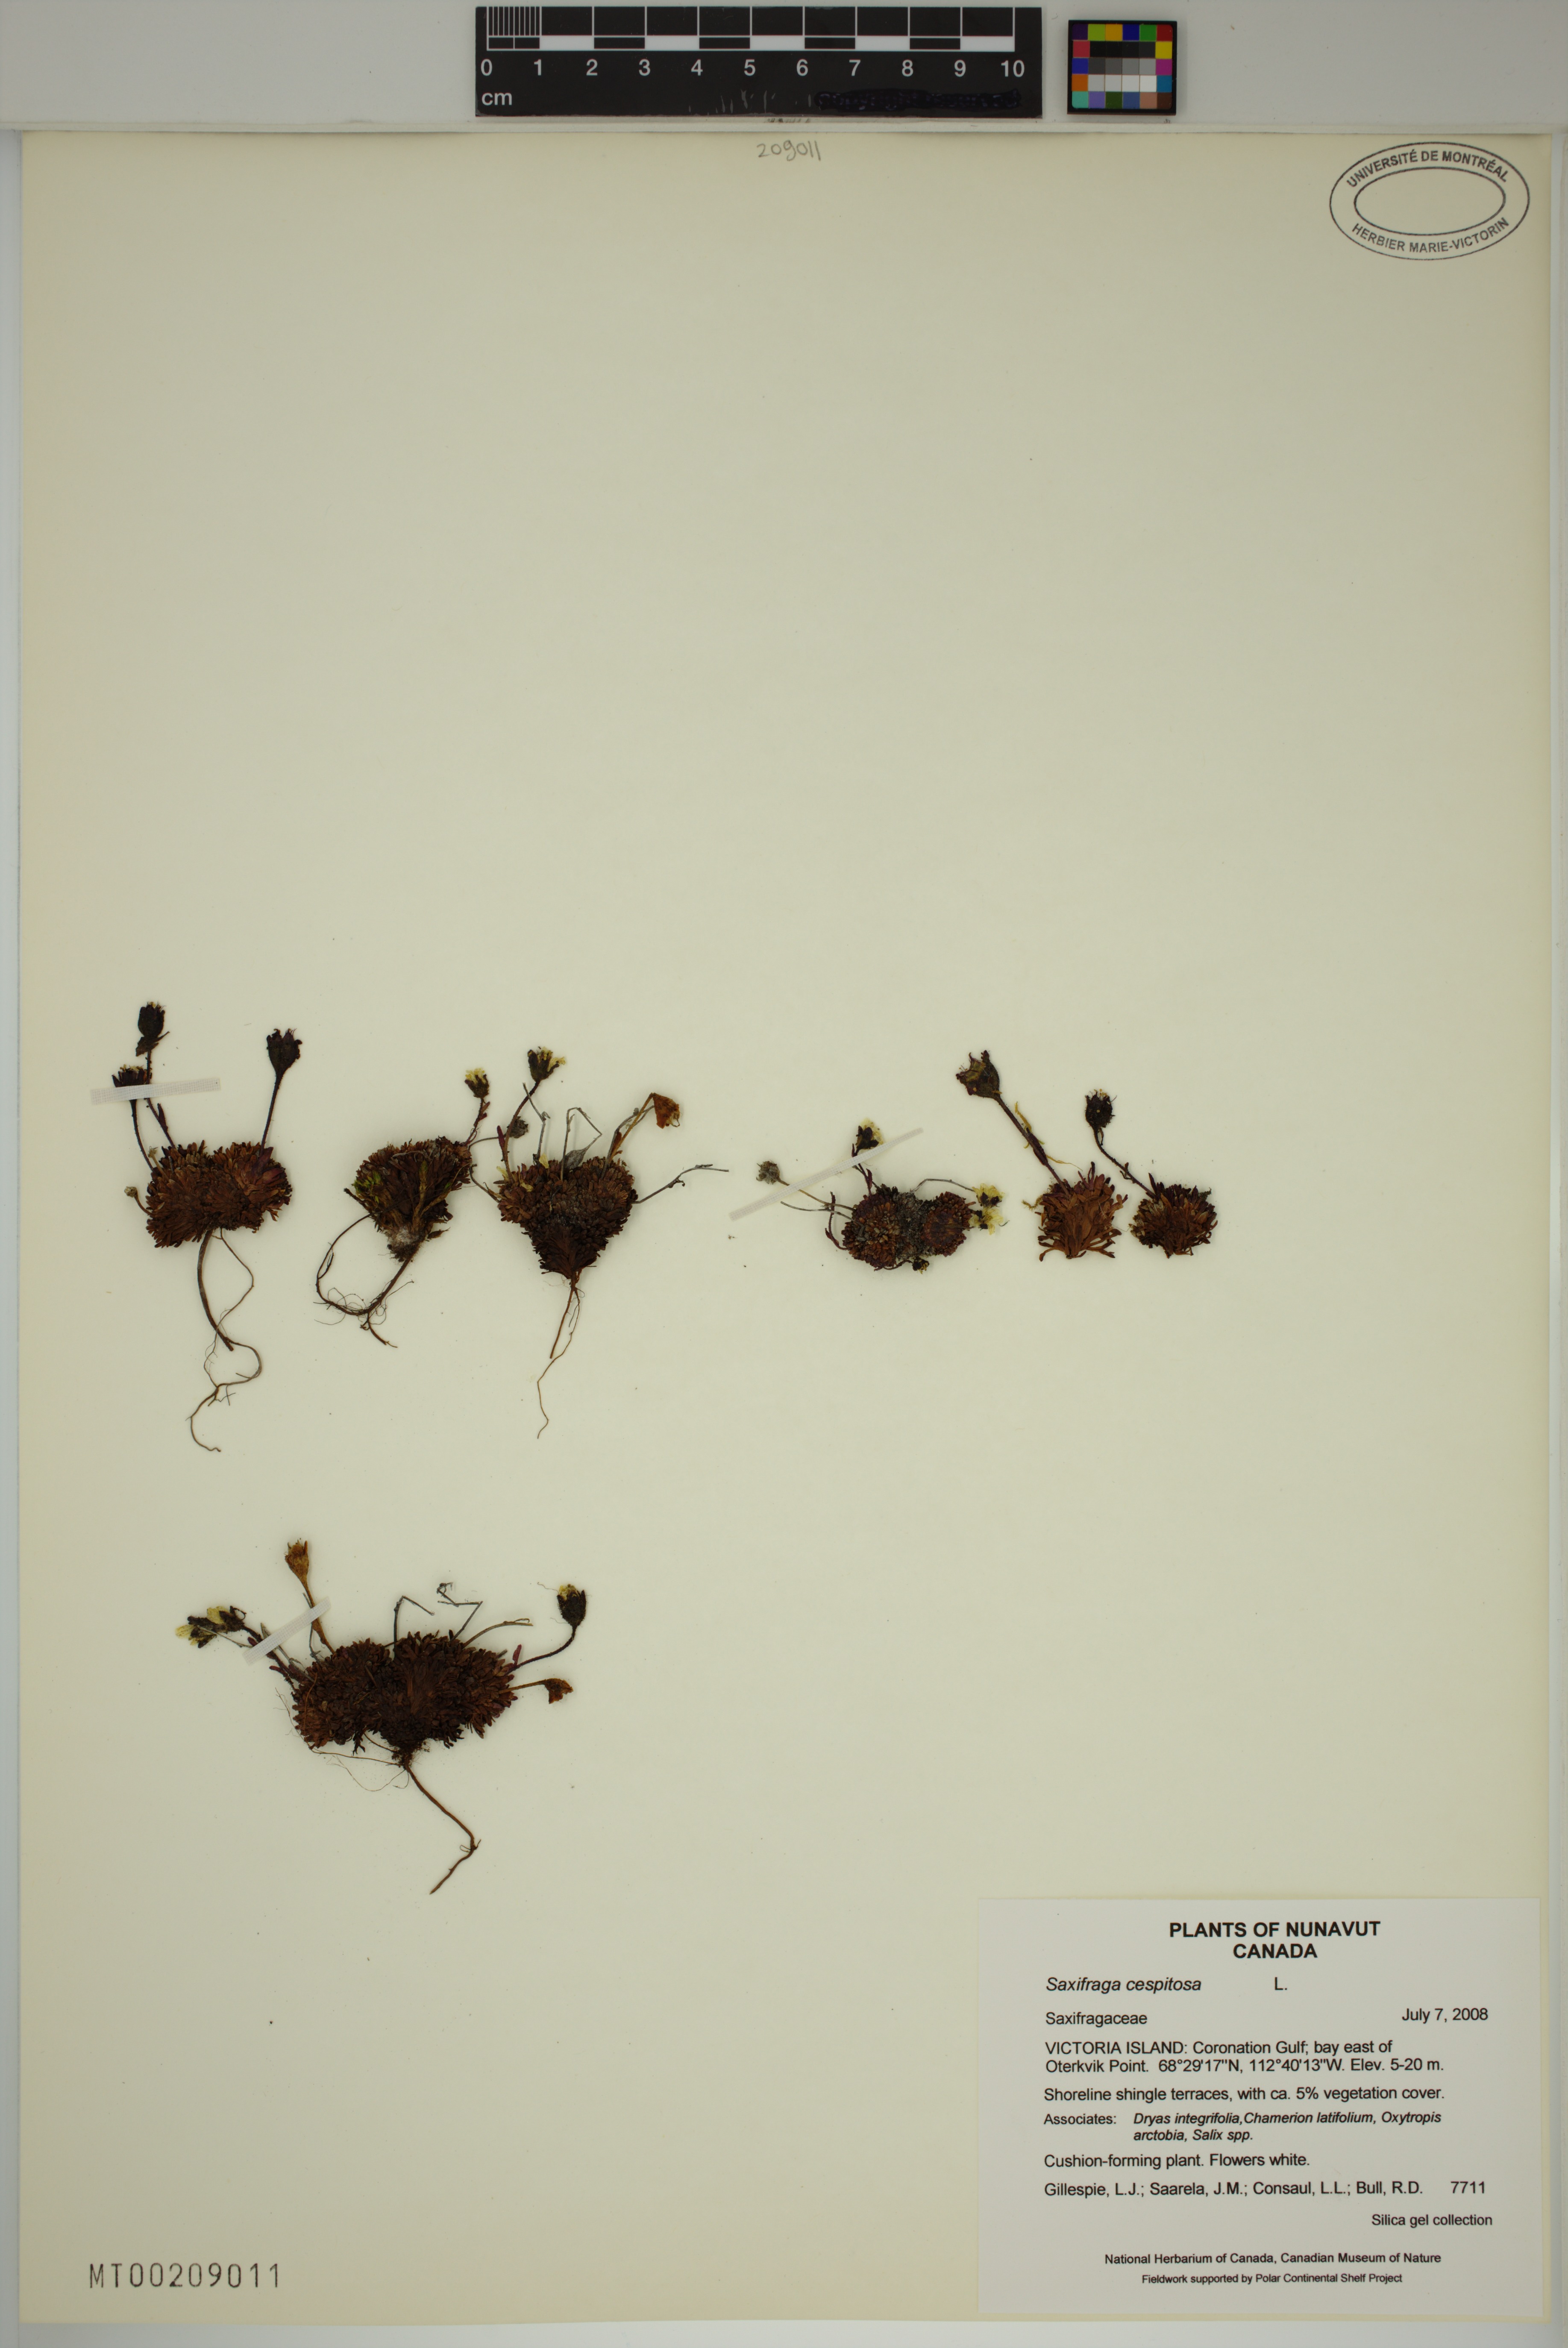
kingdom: Plantae
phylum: Tracheophyta
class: Magnoliopsida
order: Saxifragales
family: Saxifragaceae
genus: Saxifraga
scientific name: Saxifraga cespitosa
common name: Tufted saxifrage
